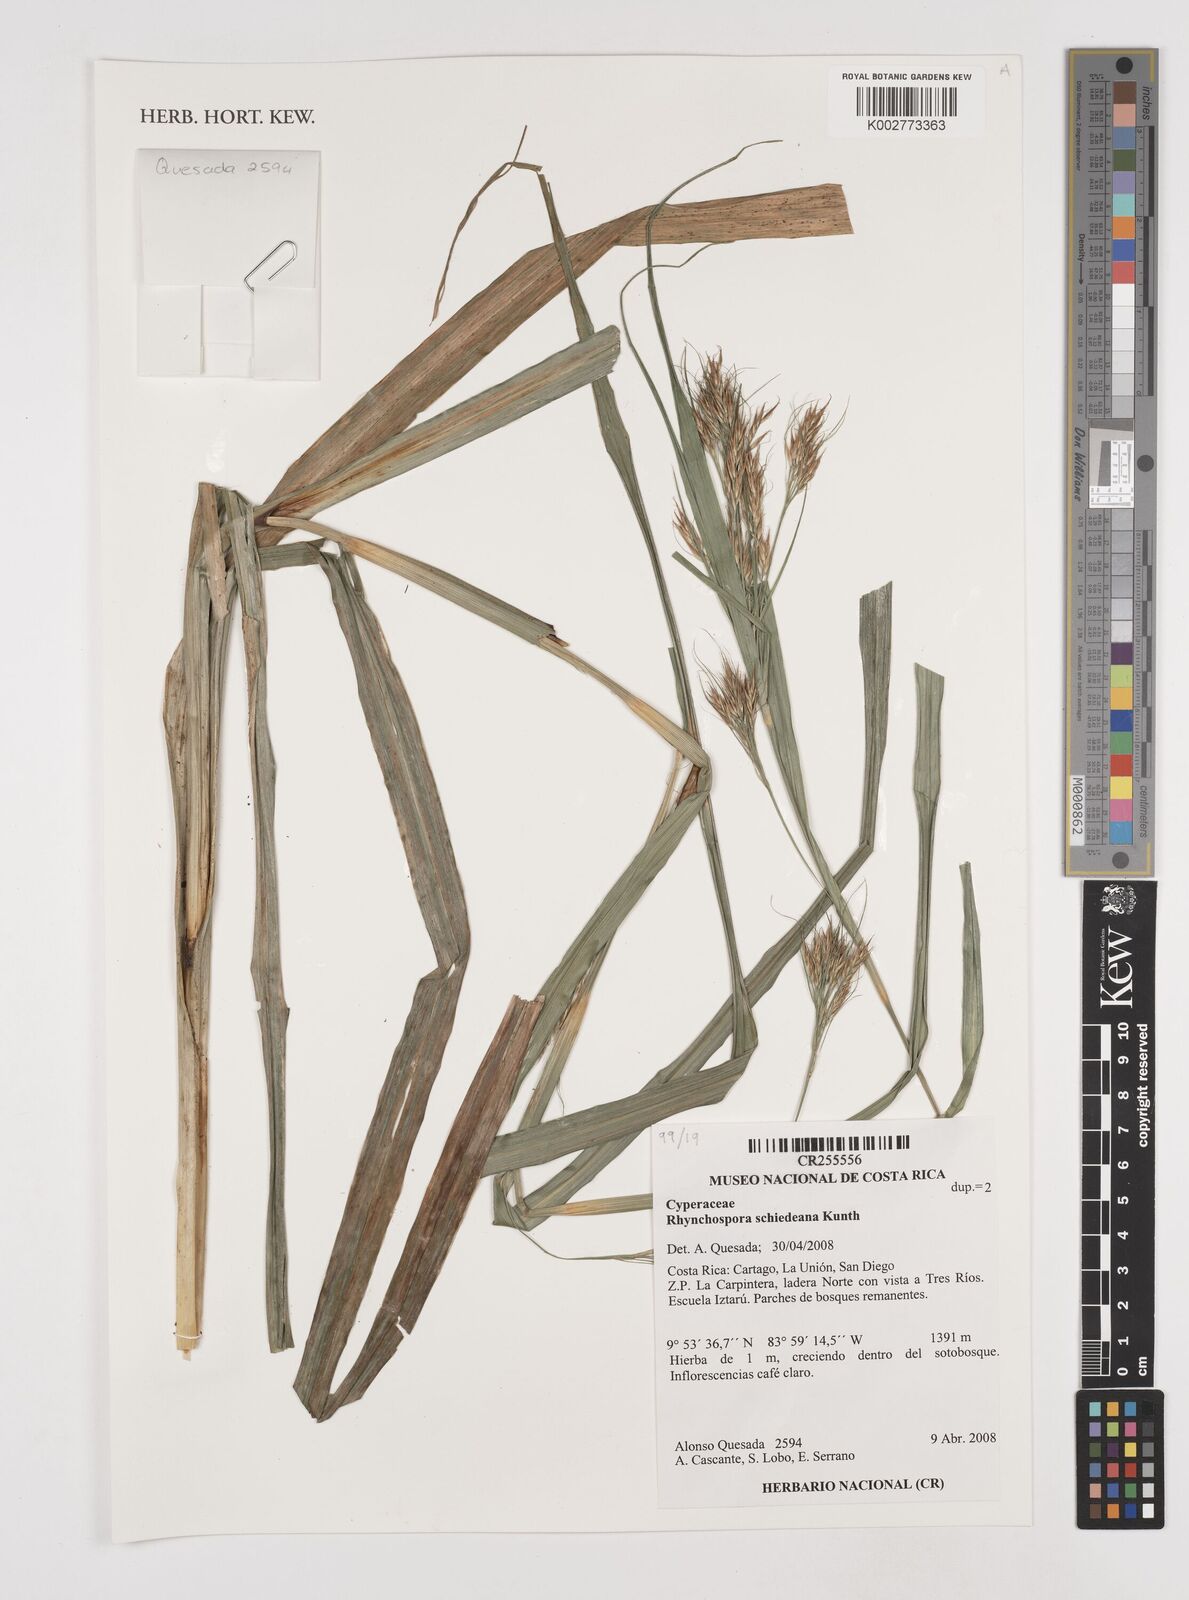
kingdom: Plantae
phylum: Tracheophyta
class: Liliopsida
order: Poales
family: Cyperaceae
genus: Rhynchospora
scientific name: Rhynchospora schiedeana
